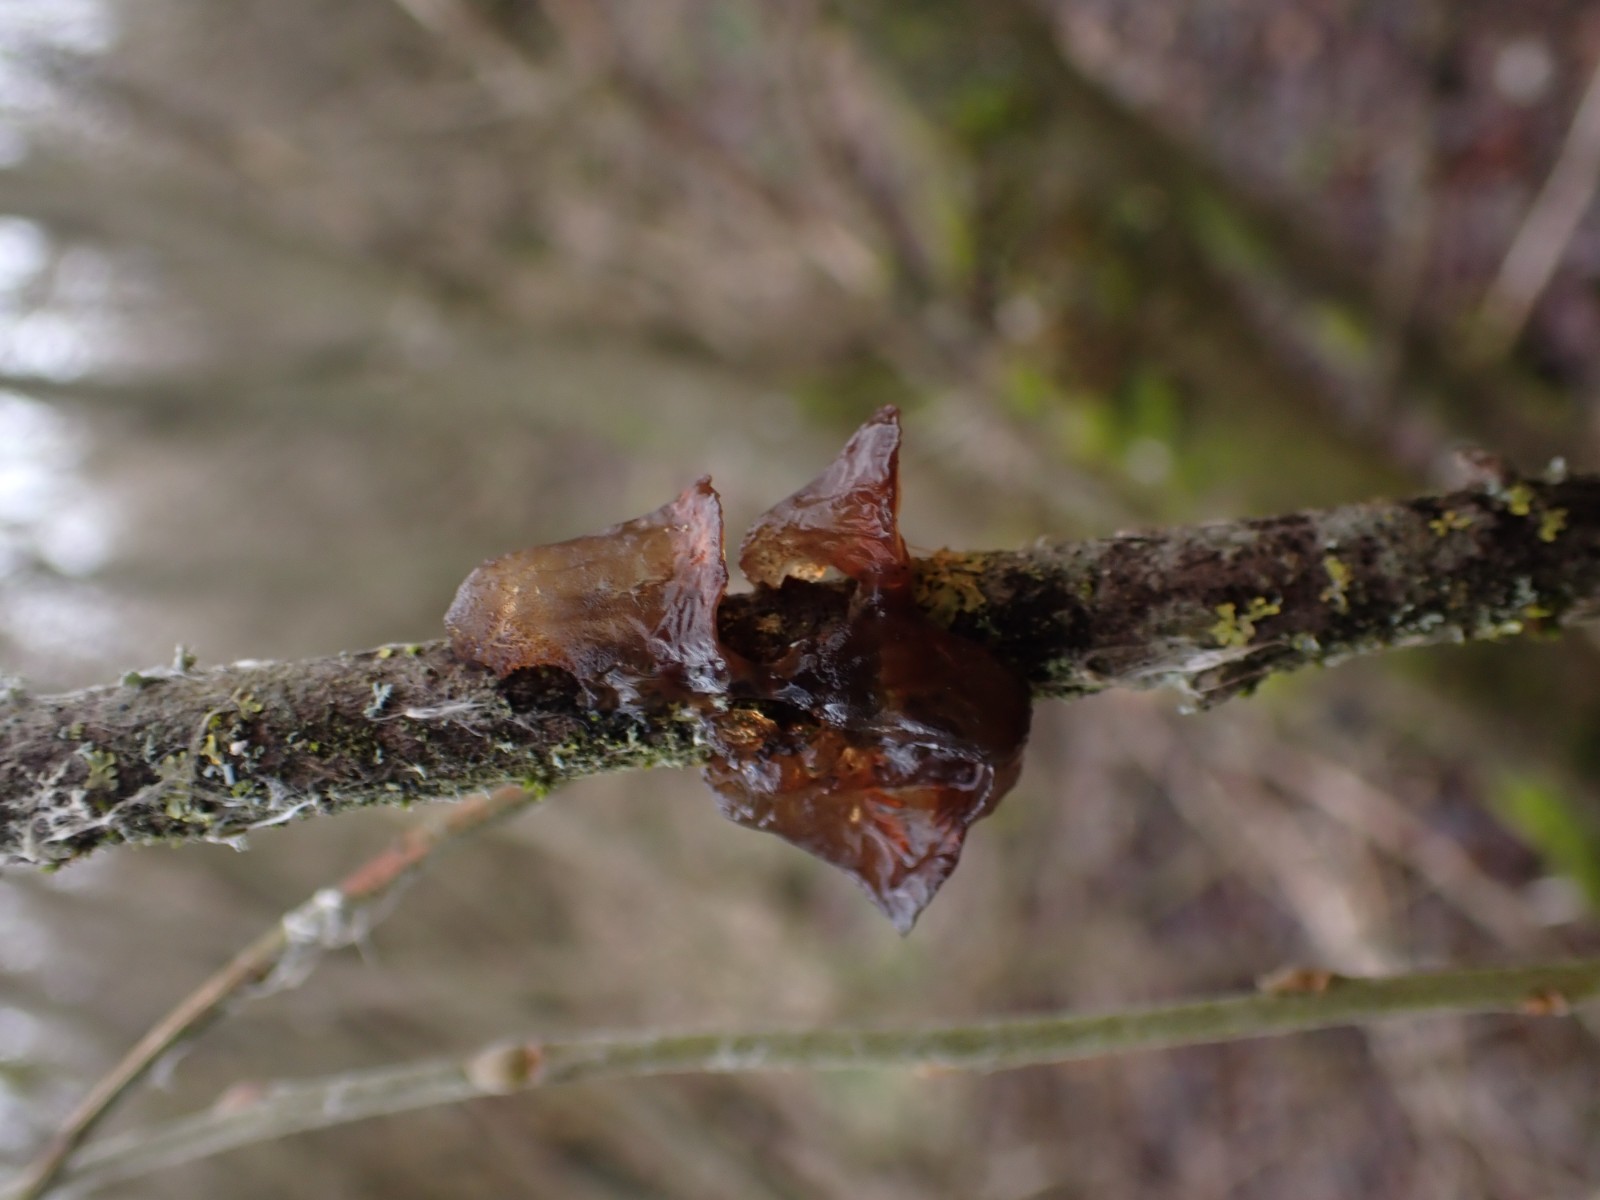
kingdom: Fungi
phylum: Basidiomycota
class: Agaricomycetes
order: Auriculariales
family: Auriculariaceae
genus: Exidia
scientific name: Exidia recisa
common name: pile-bævretop
